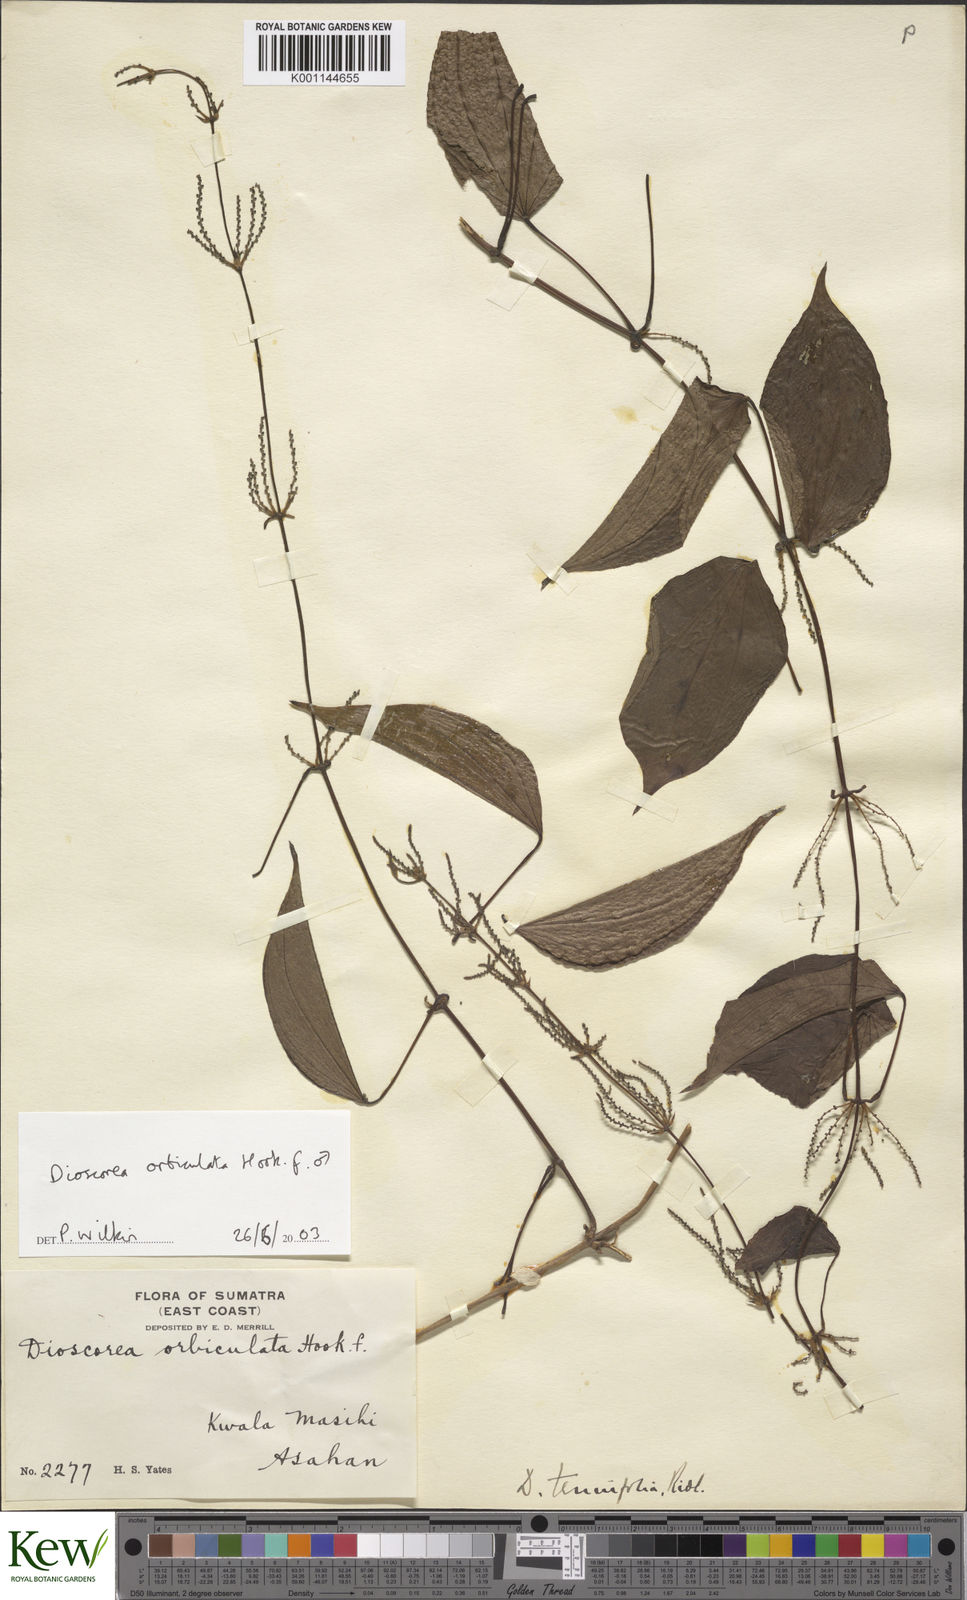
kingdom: Plantae
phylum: Tracheophyta
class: Liliopsida
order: Dioscoreales
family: Dioscoreaceae
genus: Dioscorea
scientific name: Dioscorea orbiculata
